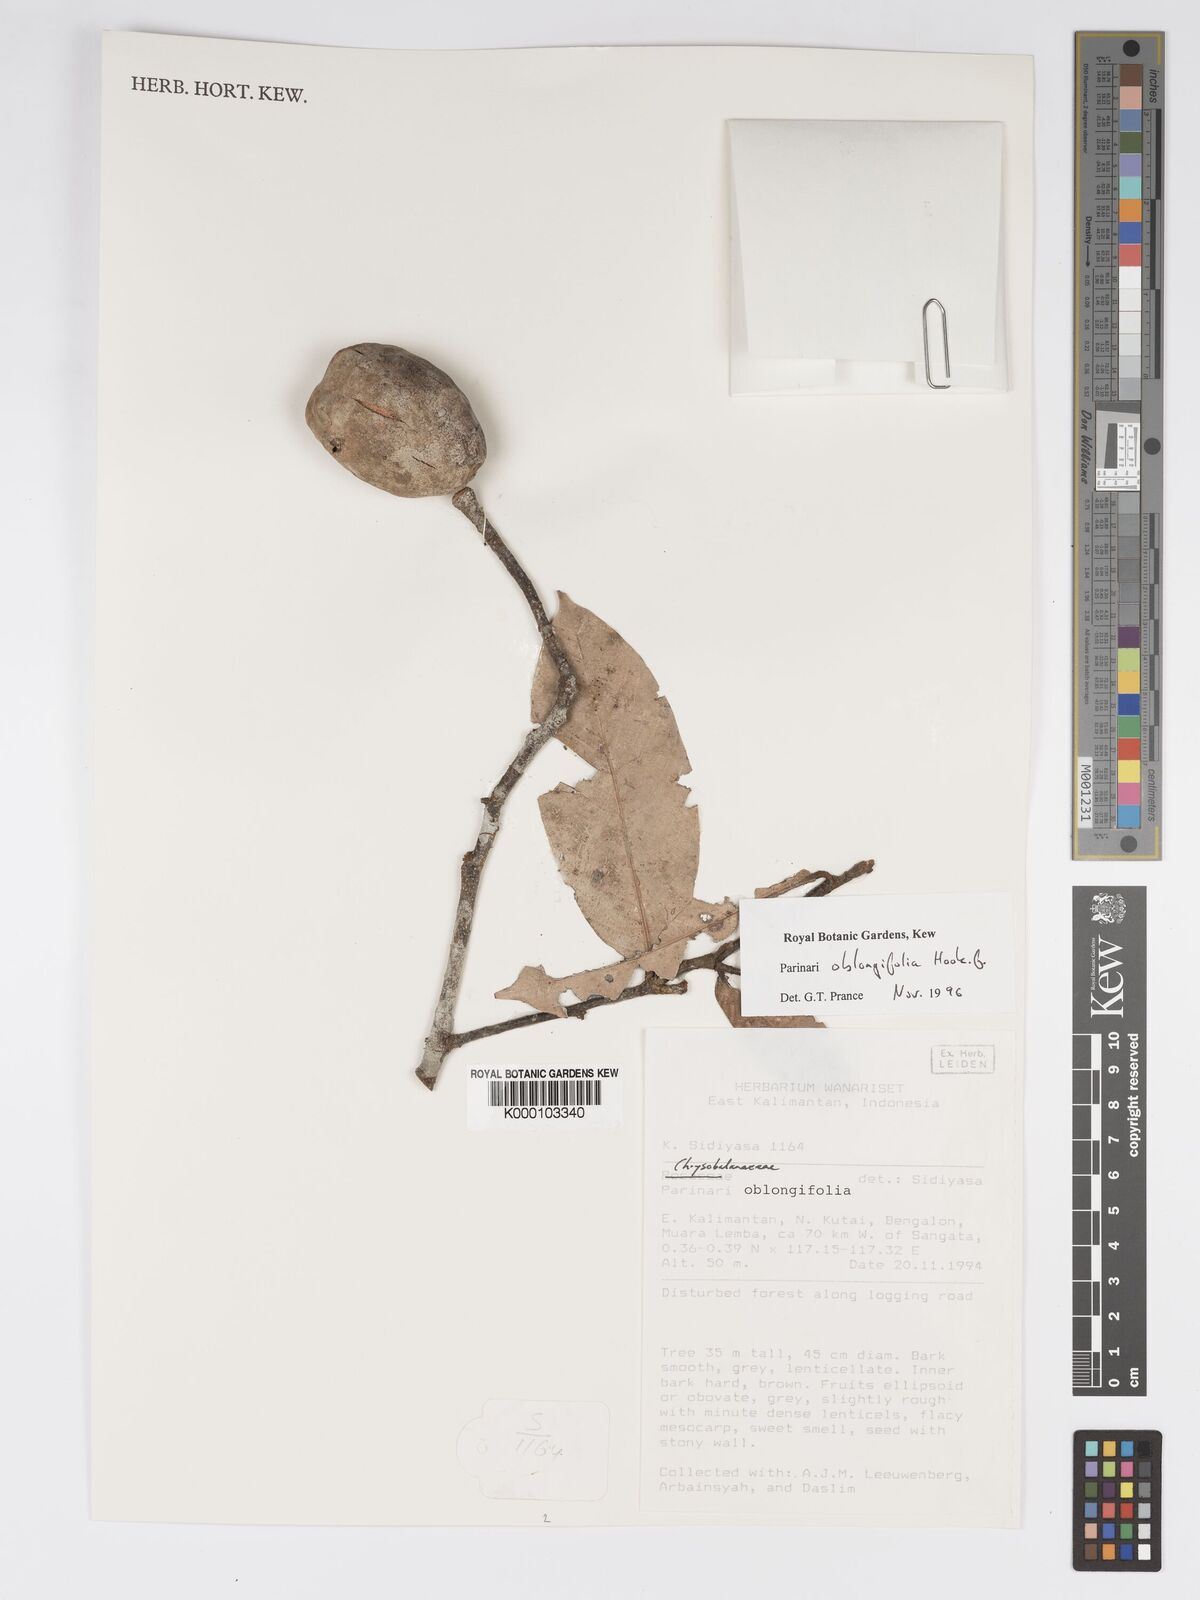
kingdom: Plantae
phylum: Tracheophyta
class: Magnoliopsida
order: Malpighiales
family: Chrysobalanaceae
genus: Parinari
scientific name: Parinari oblongifolia
